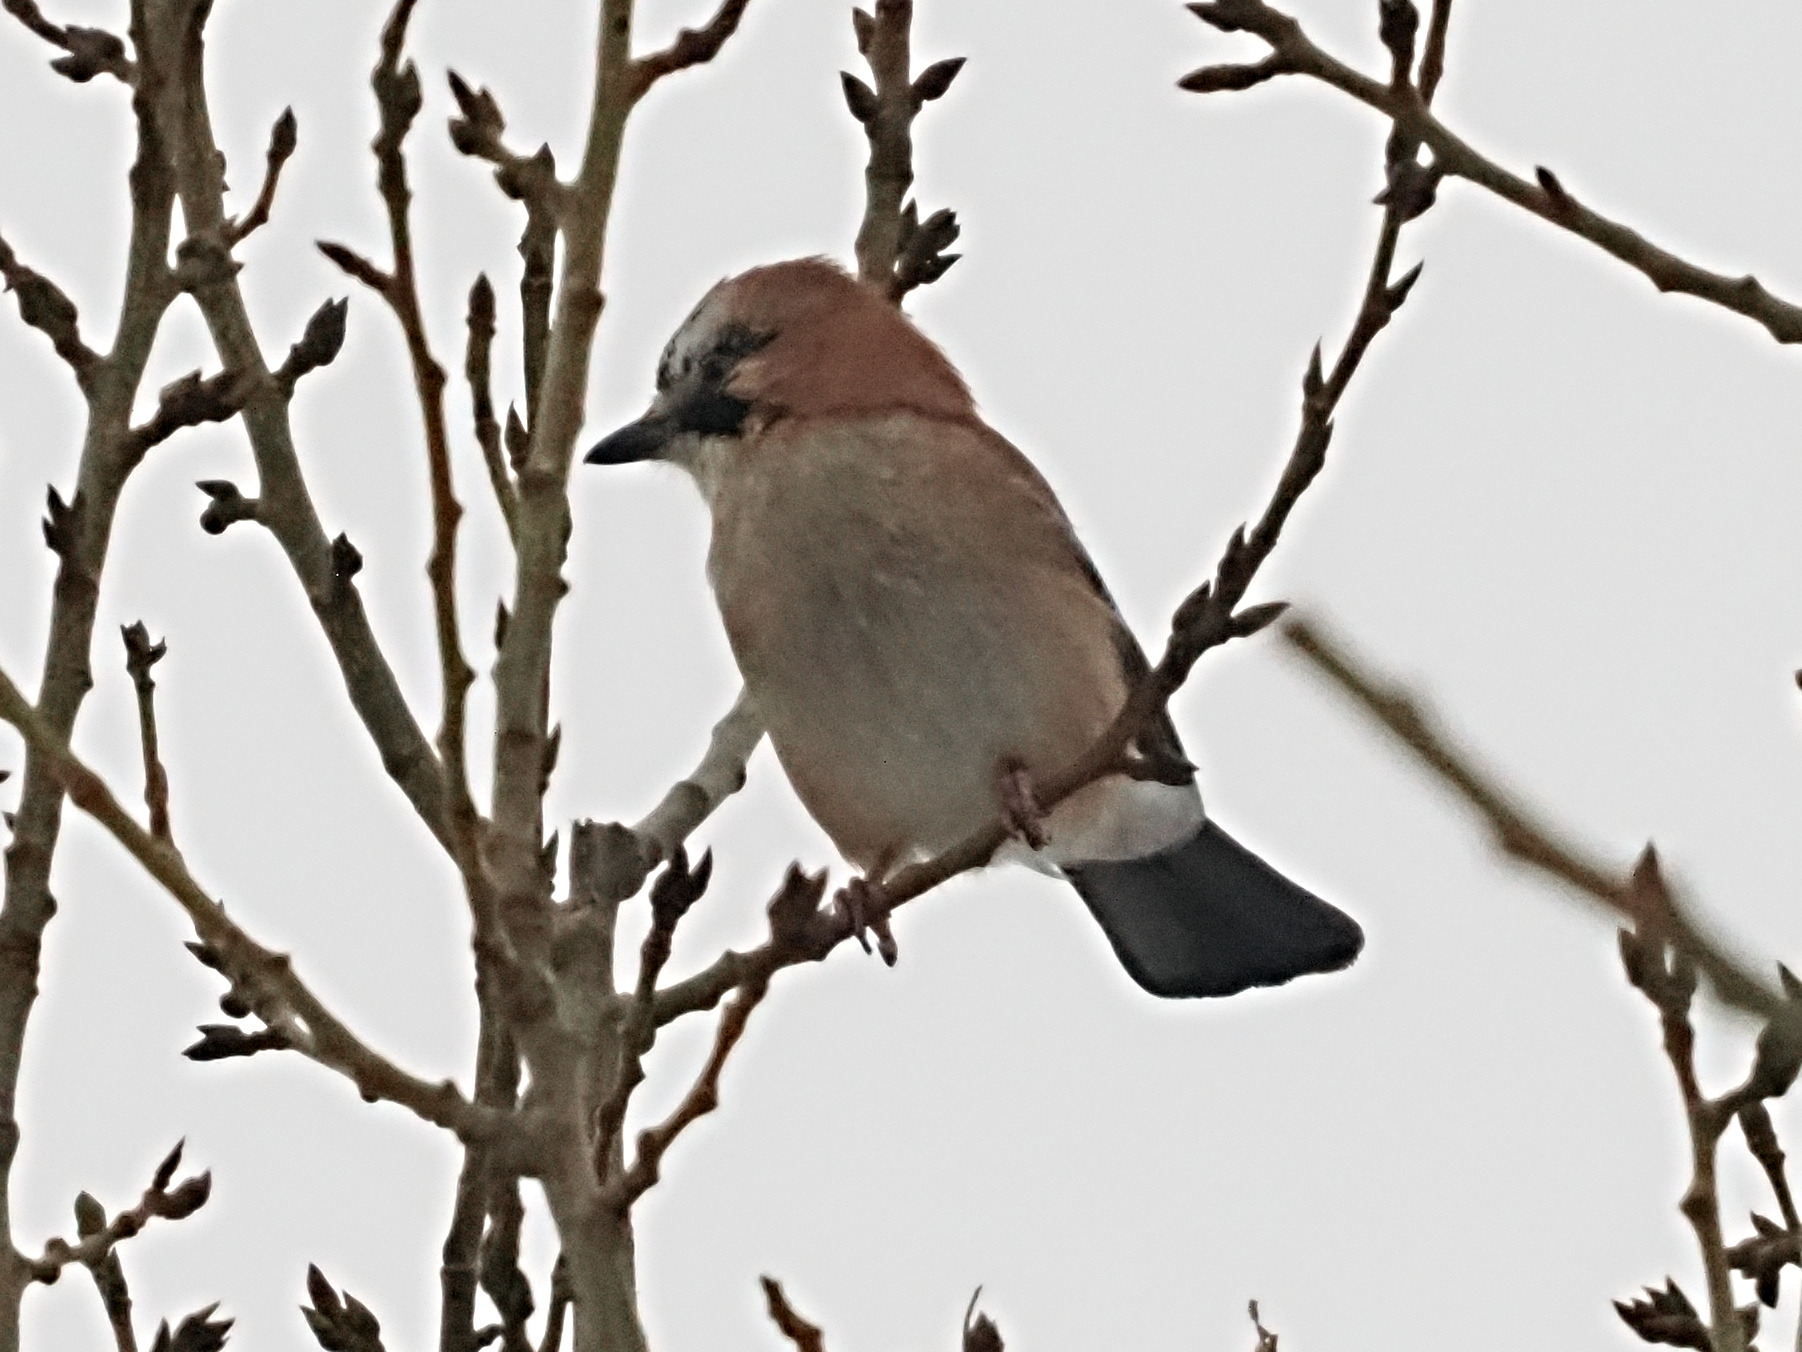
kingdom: Animalia
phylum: Chordata
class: Aves
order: Passeriformes
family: Corvidae
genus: Garrulus
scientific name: Garrulus glandarius
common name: Skovskade
